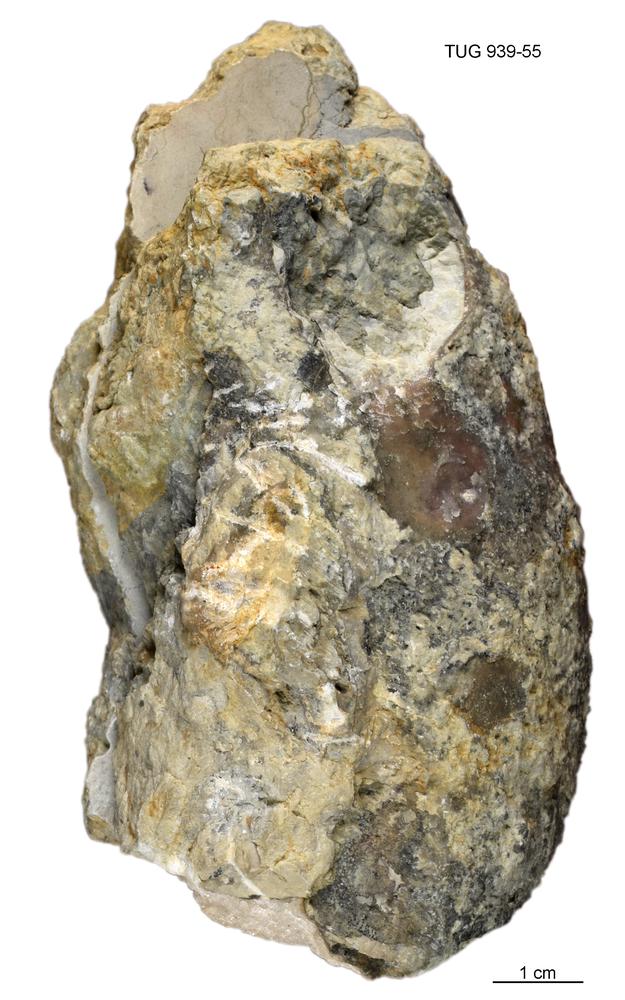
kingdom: Animalia
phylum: Mollusca
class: Cephalopoda
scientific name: Cephalopoda
